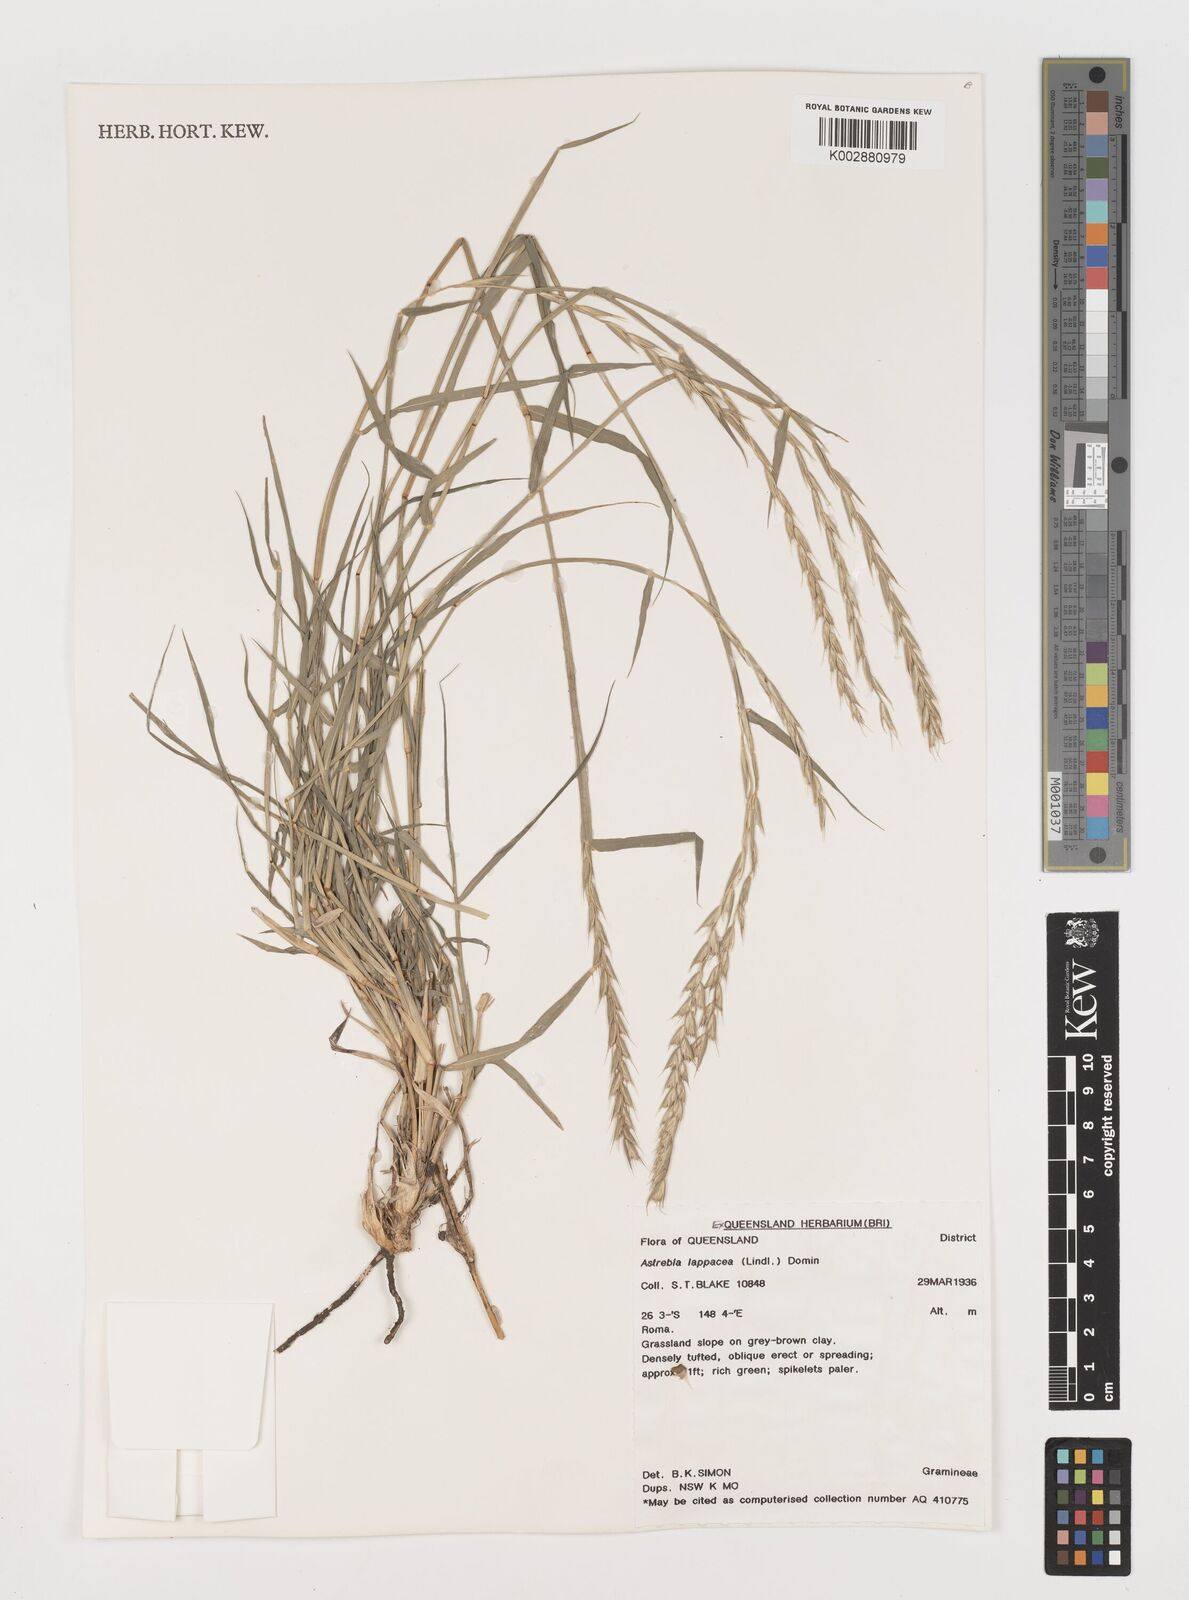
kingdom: Plantae
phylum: Tracheophyta
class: Liliopsida
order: Poales
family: Poaceae
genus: Astrebla
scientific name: Astrebla lappacea
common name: Curly mitchell grass
